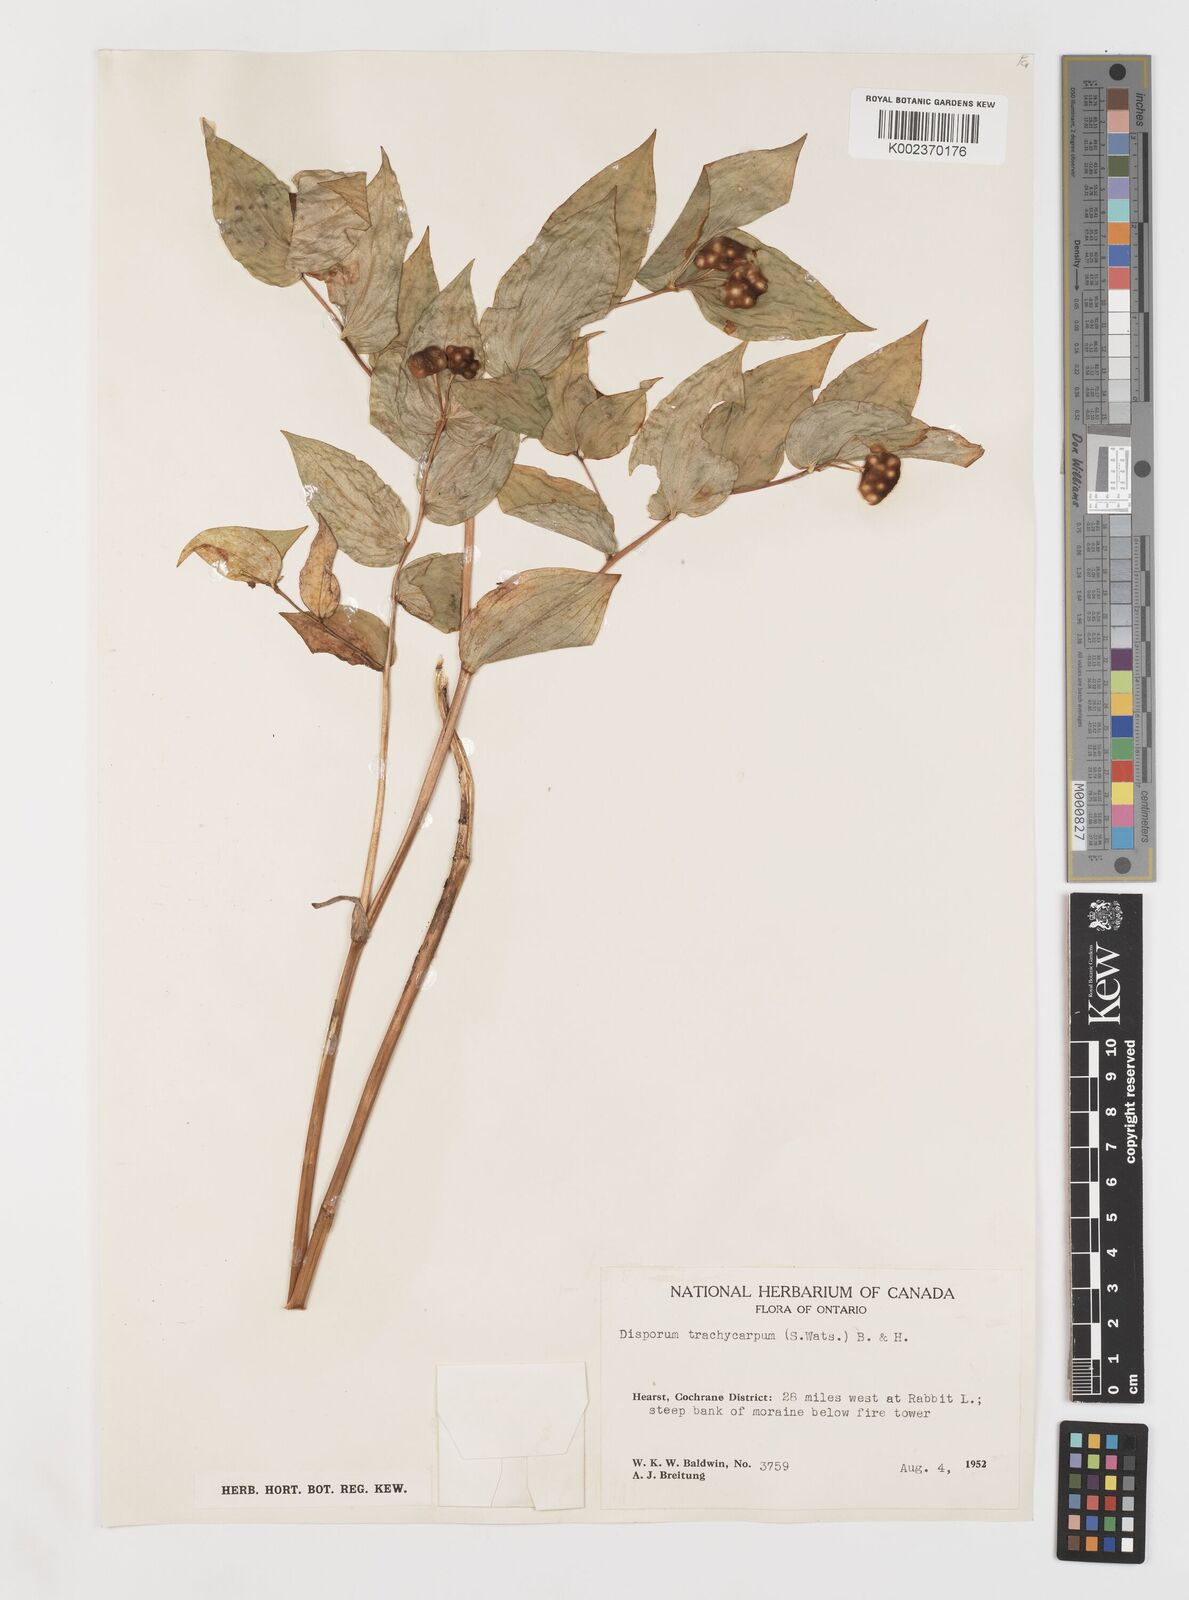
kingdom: Plantae
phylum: Tracheophyta
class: Liliopsida
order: Liliales
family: Liliaceae
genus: Prosartes
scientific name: Prosartes trachycarpa
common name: Rough-fruit fairy-bells
